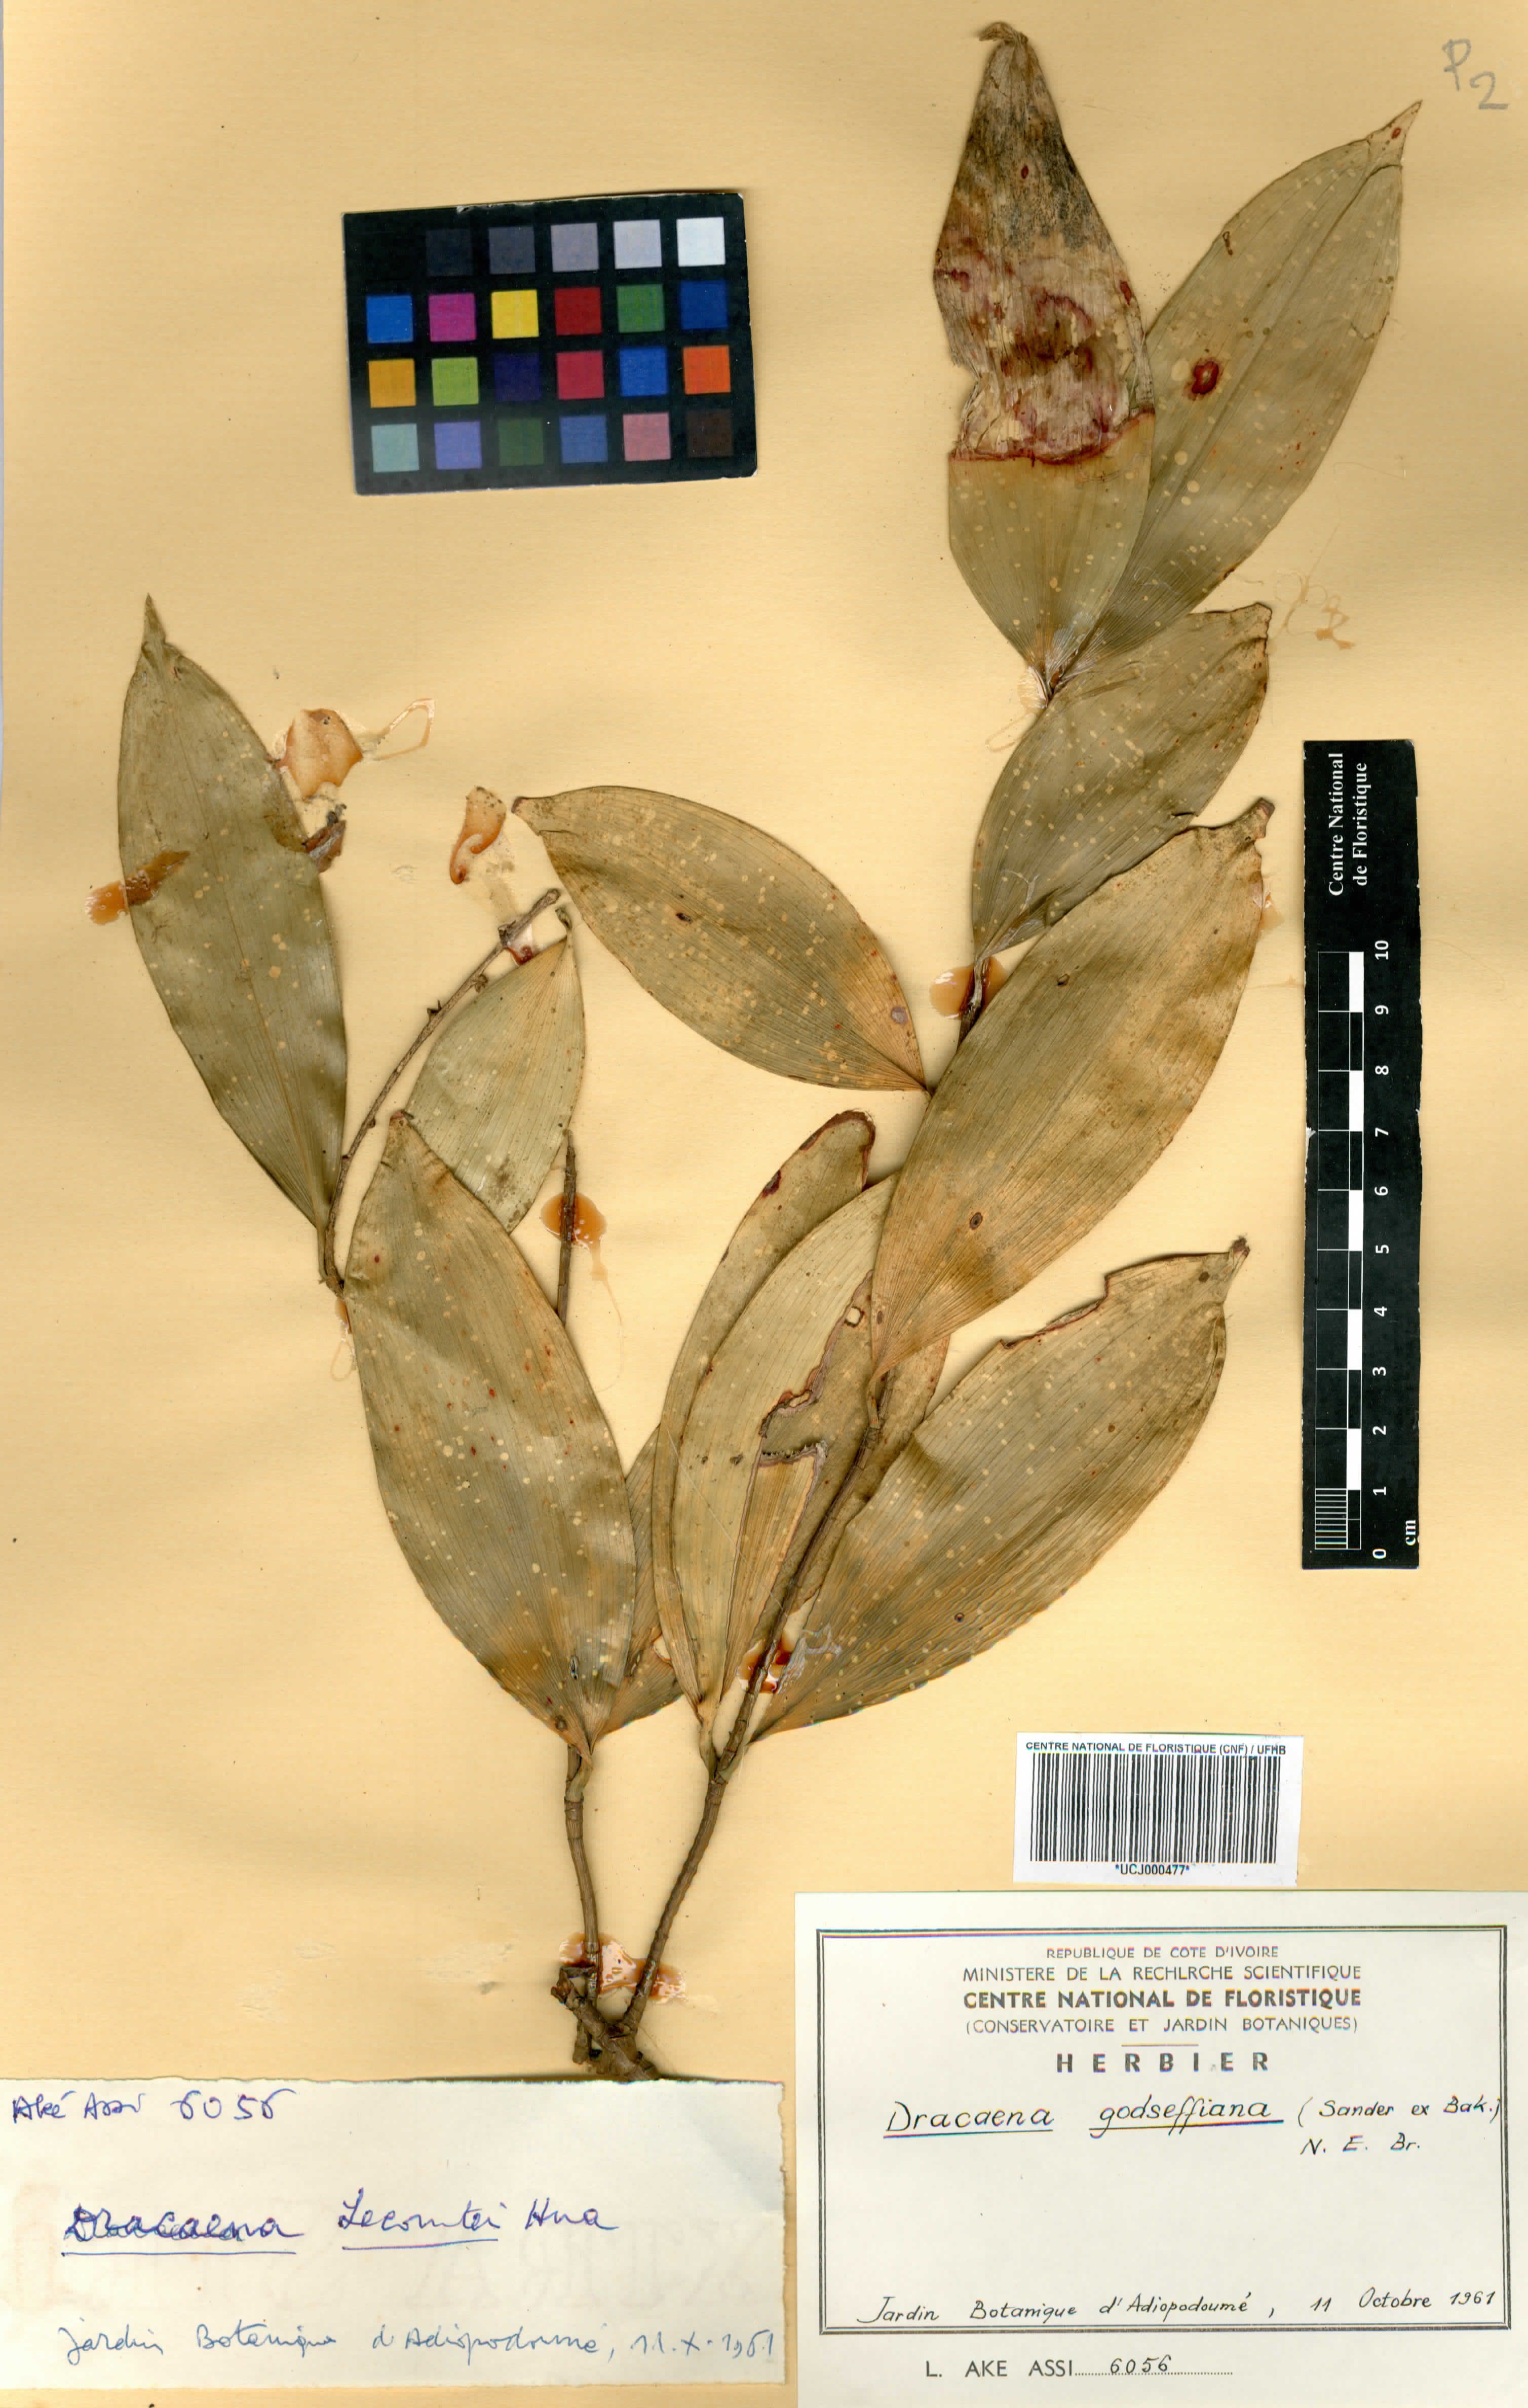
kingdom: Plantae
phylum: Tracheophyta
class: Liliopsida
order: Asparagales
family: Asparagaceae
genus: Dracaena
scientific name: Dracaena surculosa
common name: Spotted dracaena
